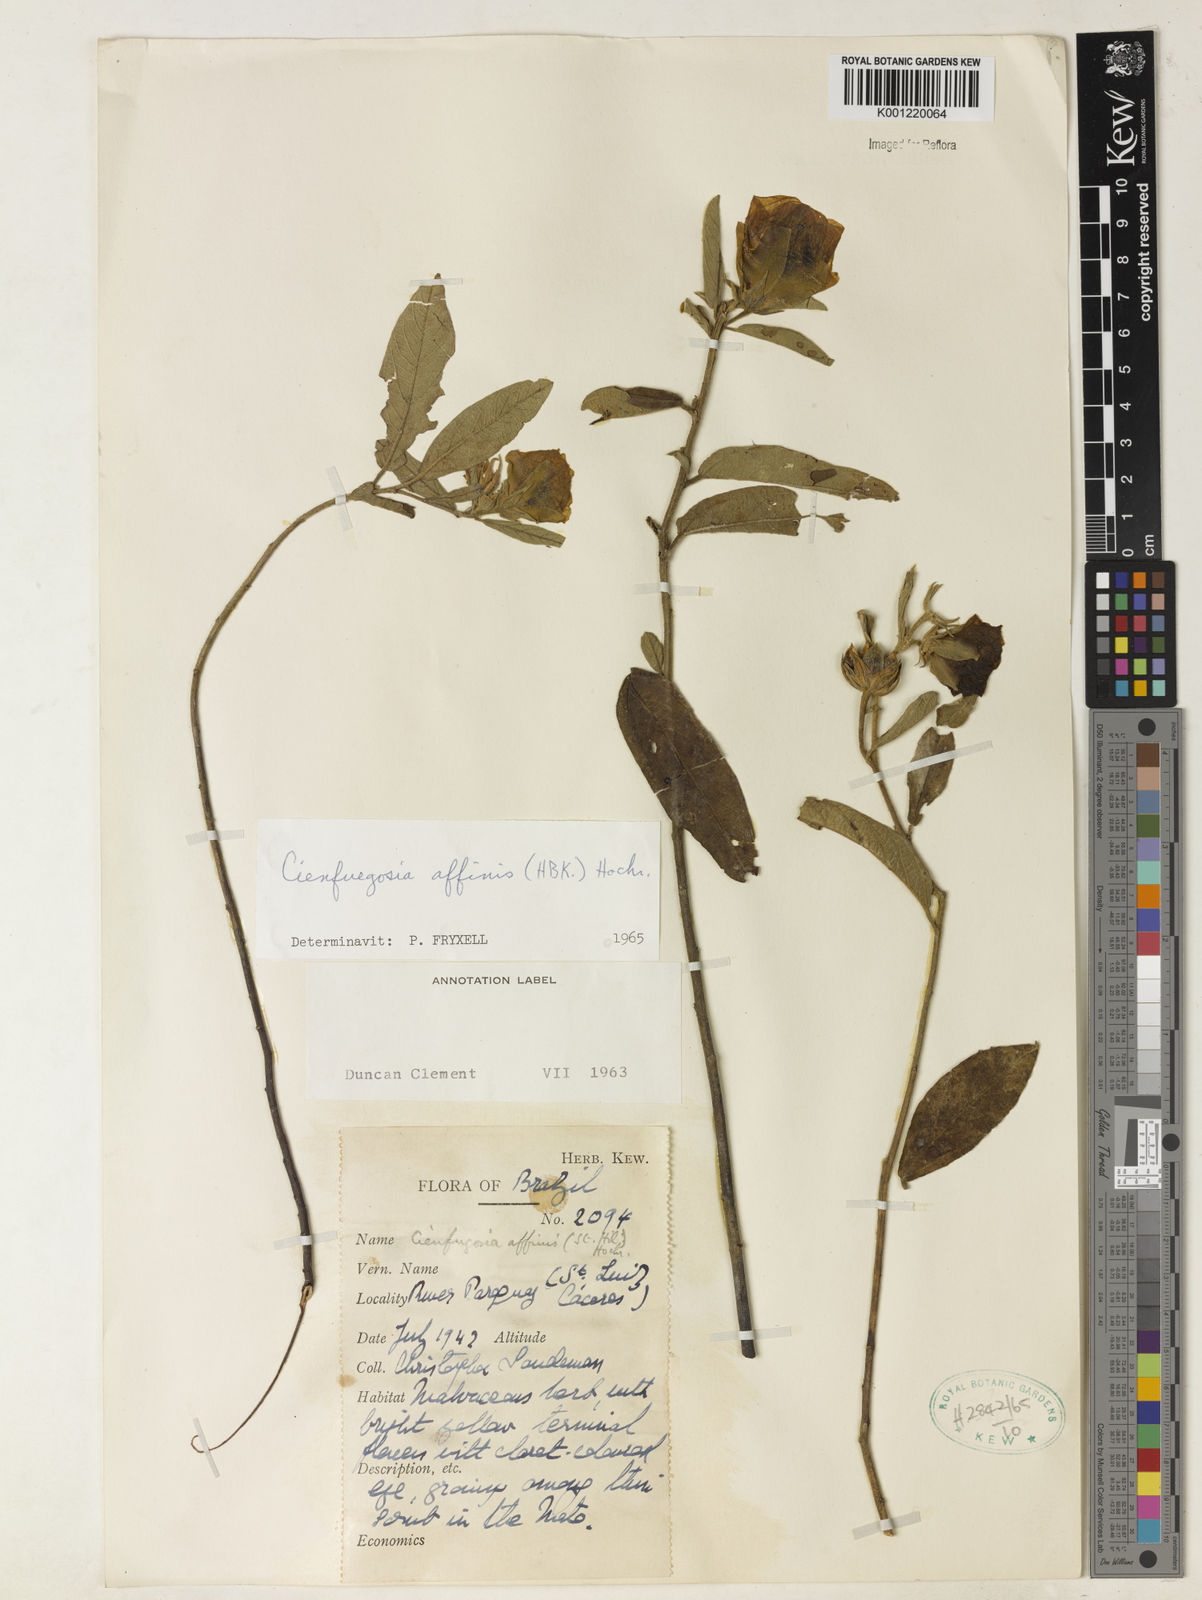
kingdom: Plantae
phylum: Tracheophyta
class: Magnoliopsida
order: Malvales
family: Malvaceae
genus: Cienfuegosia
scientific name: Cienfuegosia affinis
